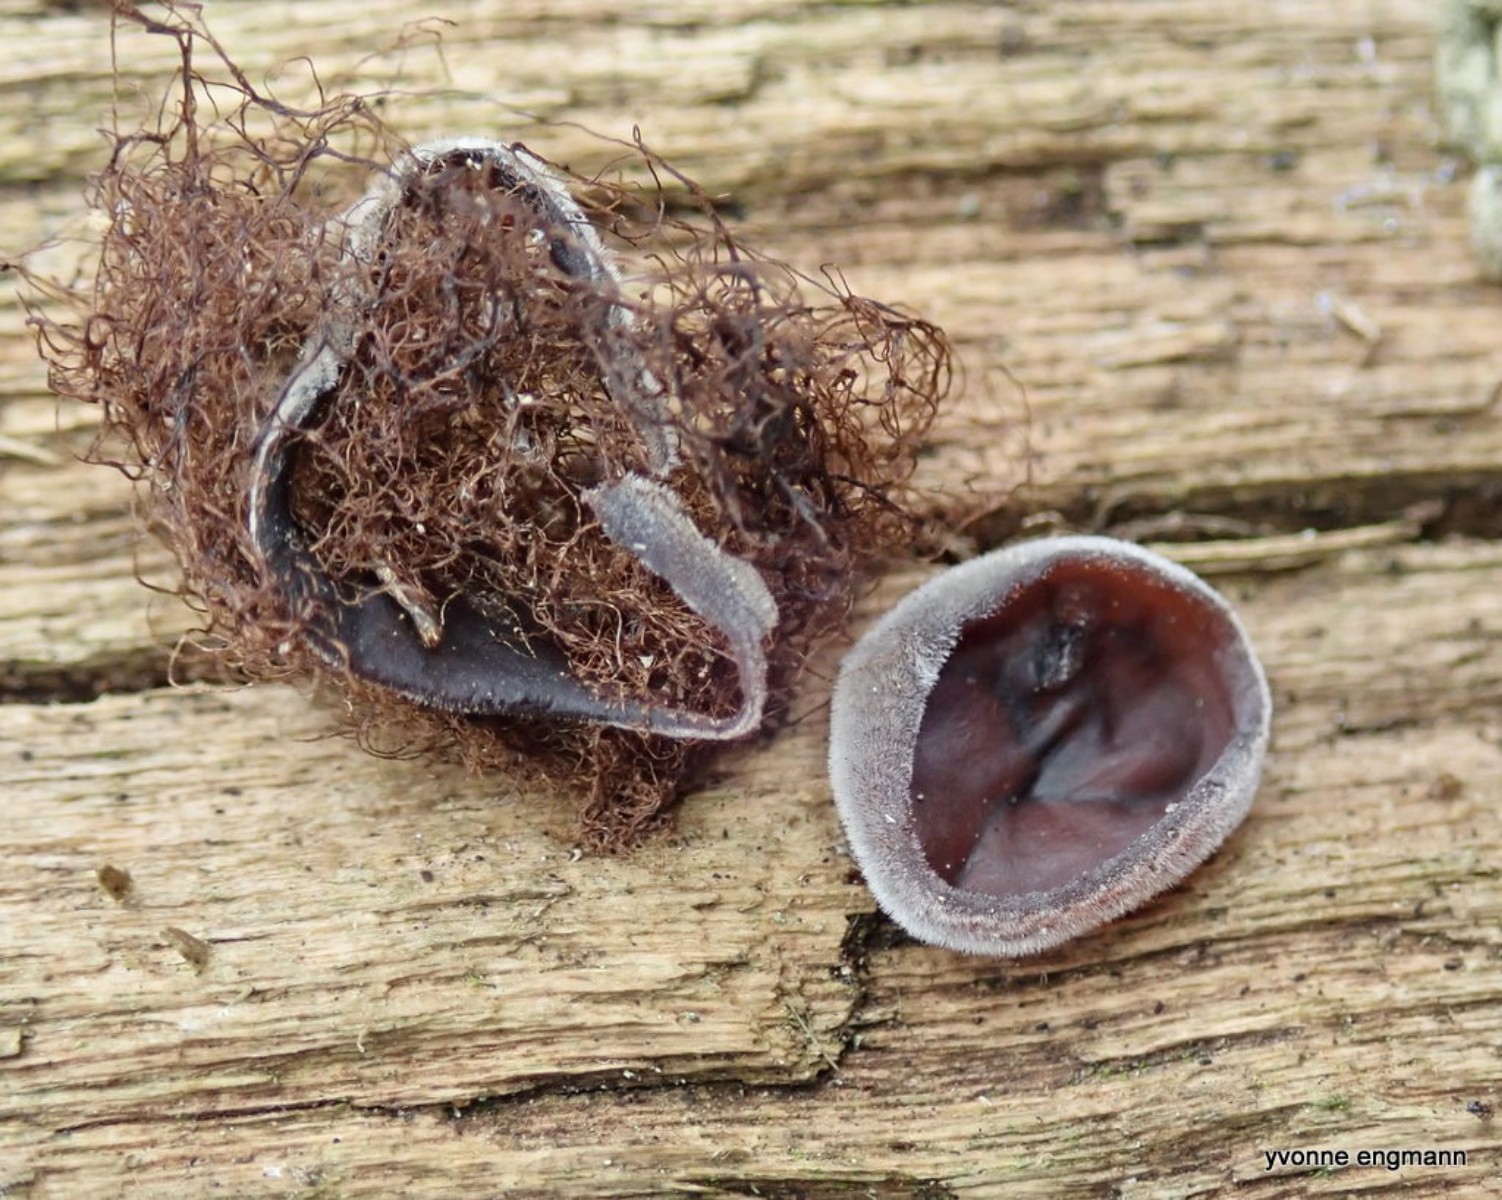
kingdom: Fungi
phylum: Basidiomycota
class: Agaricomycetes
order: Auriculariales
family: Auriculariaceae
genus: Auricularia
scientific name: Auricularia auricula-judae
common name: almindelig judasøre
